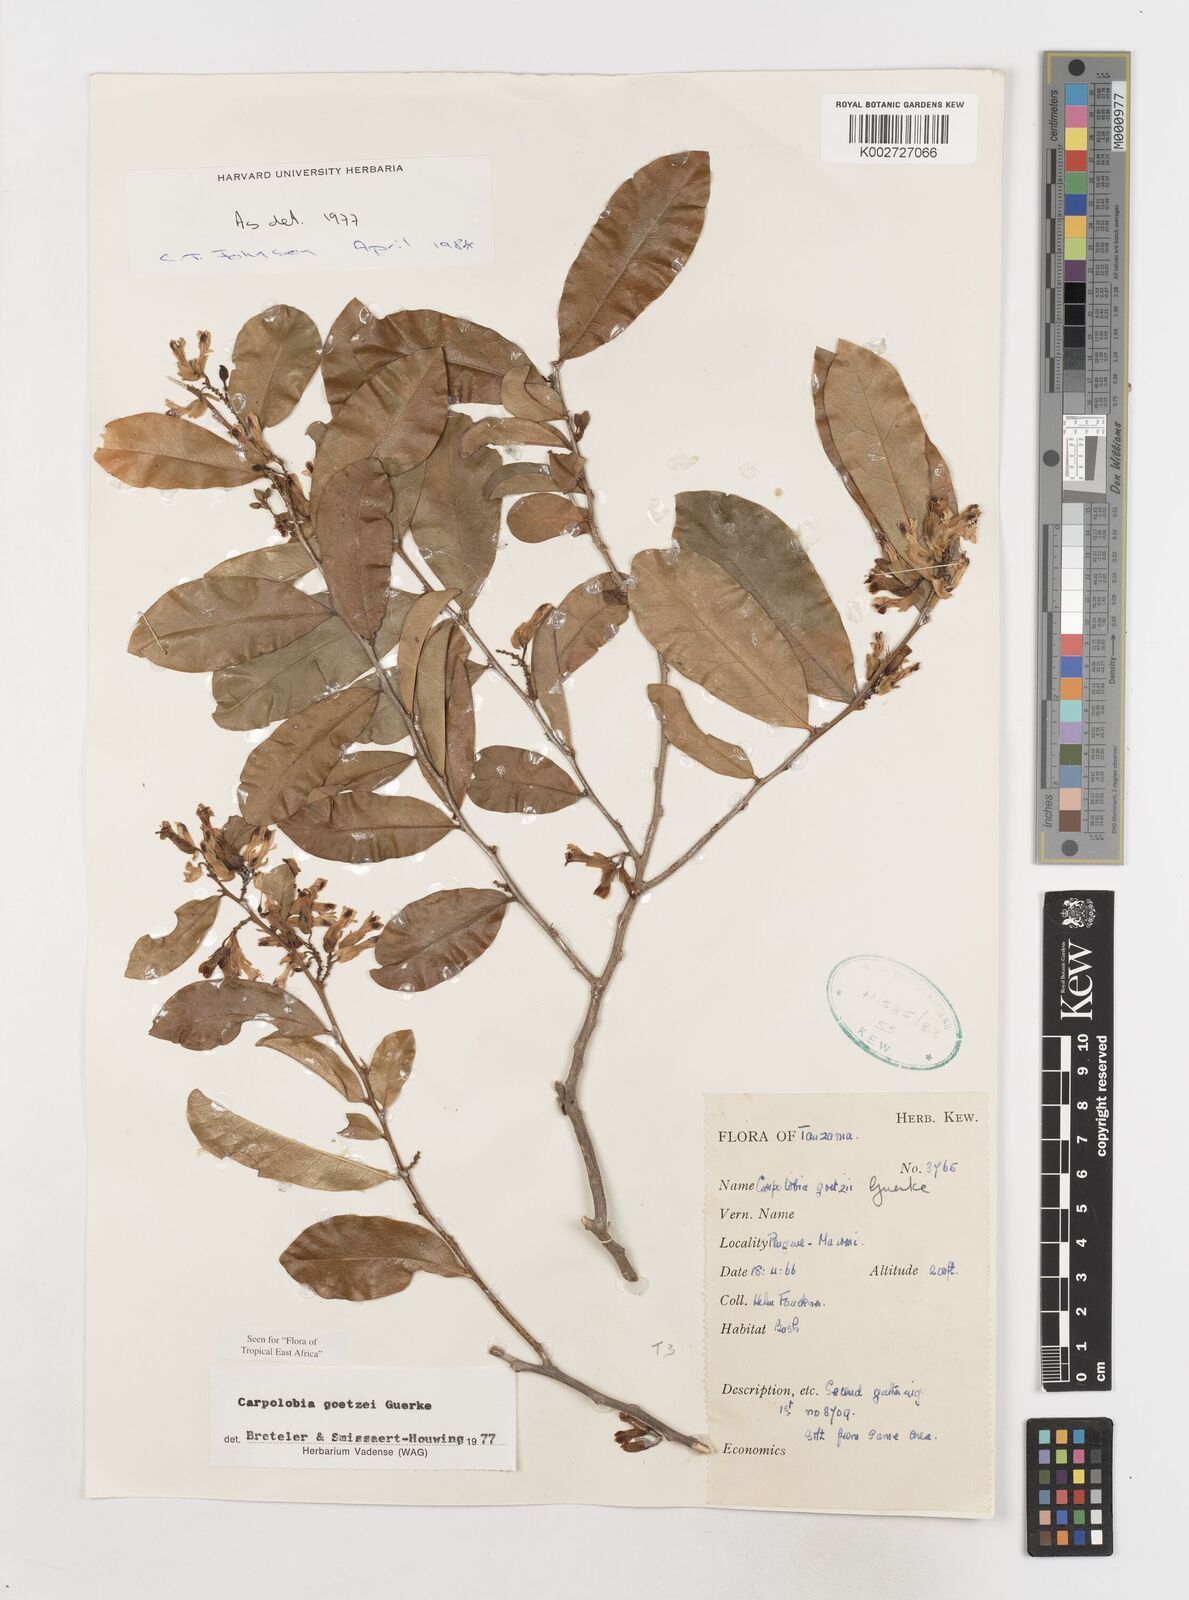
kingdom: Plantae
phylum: Tracheophyta
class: Magnoliopsida
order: Fabales
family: Polygalaceae
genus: Carpolobia
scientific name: Carpolobia goetzei
